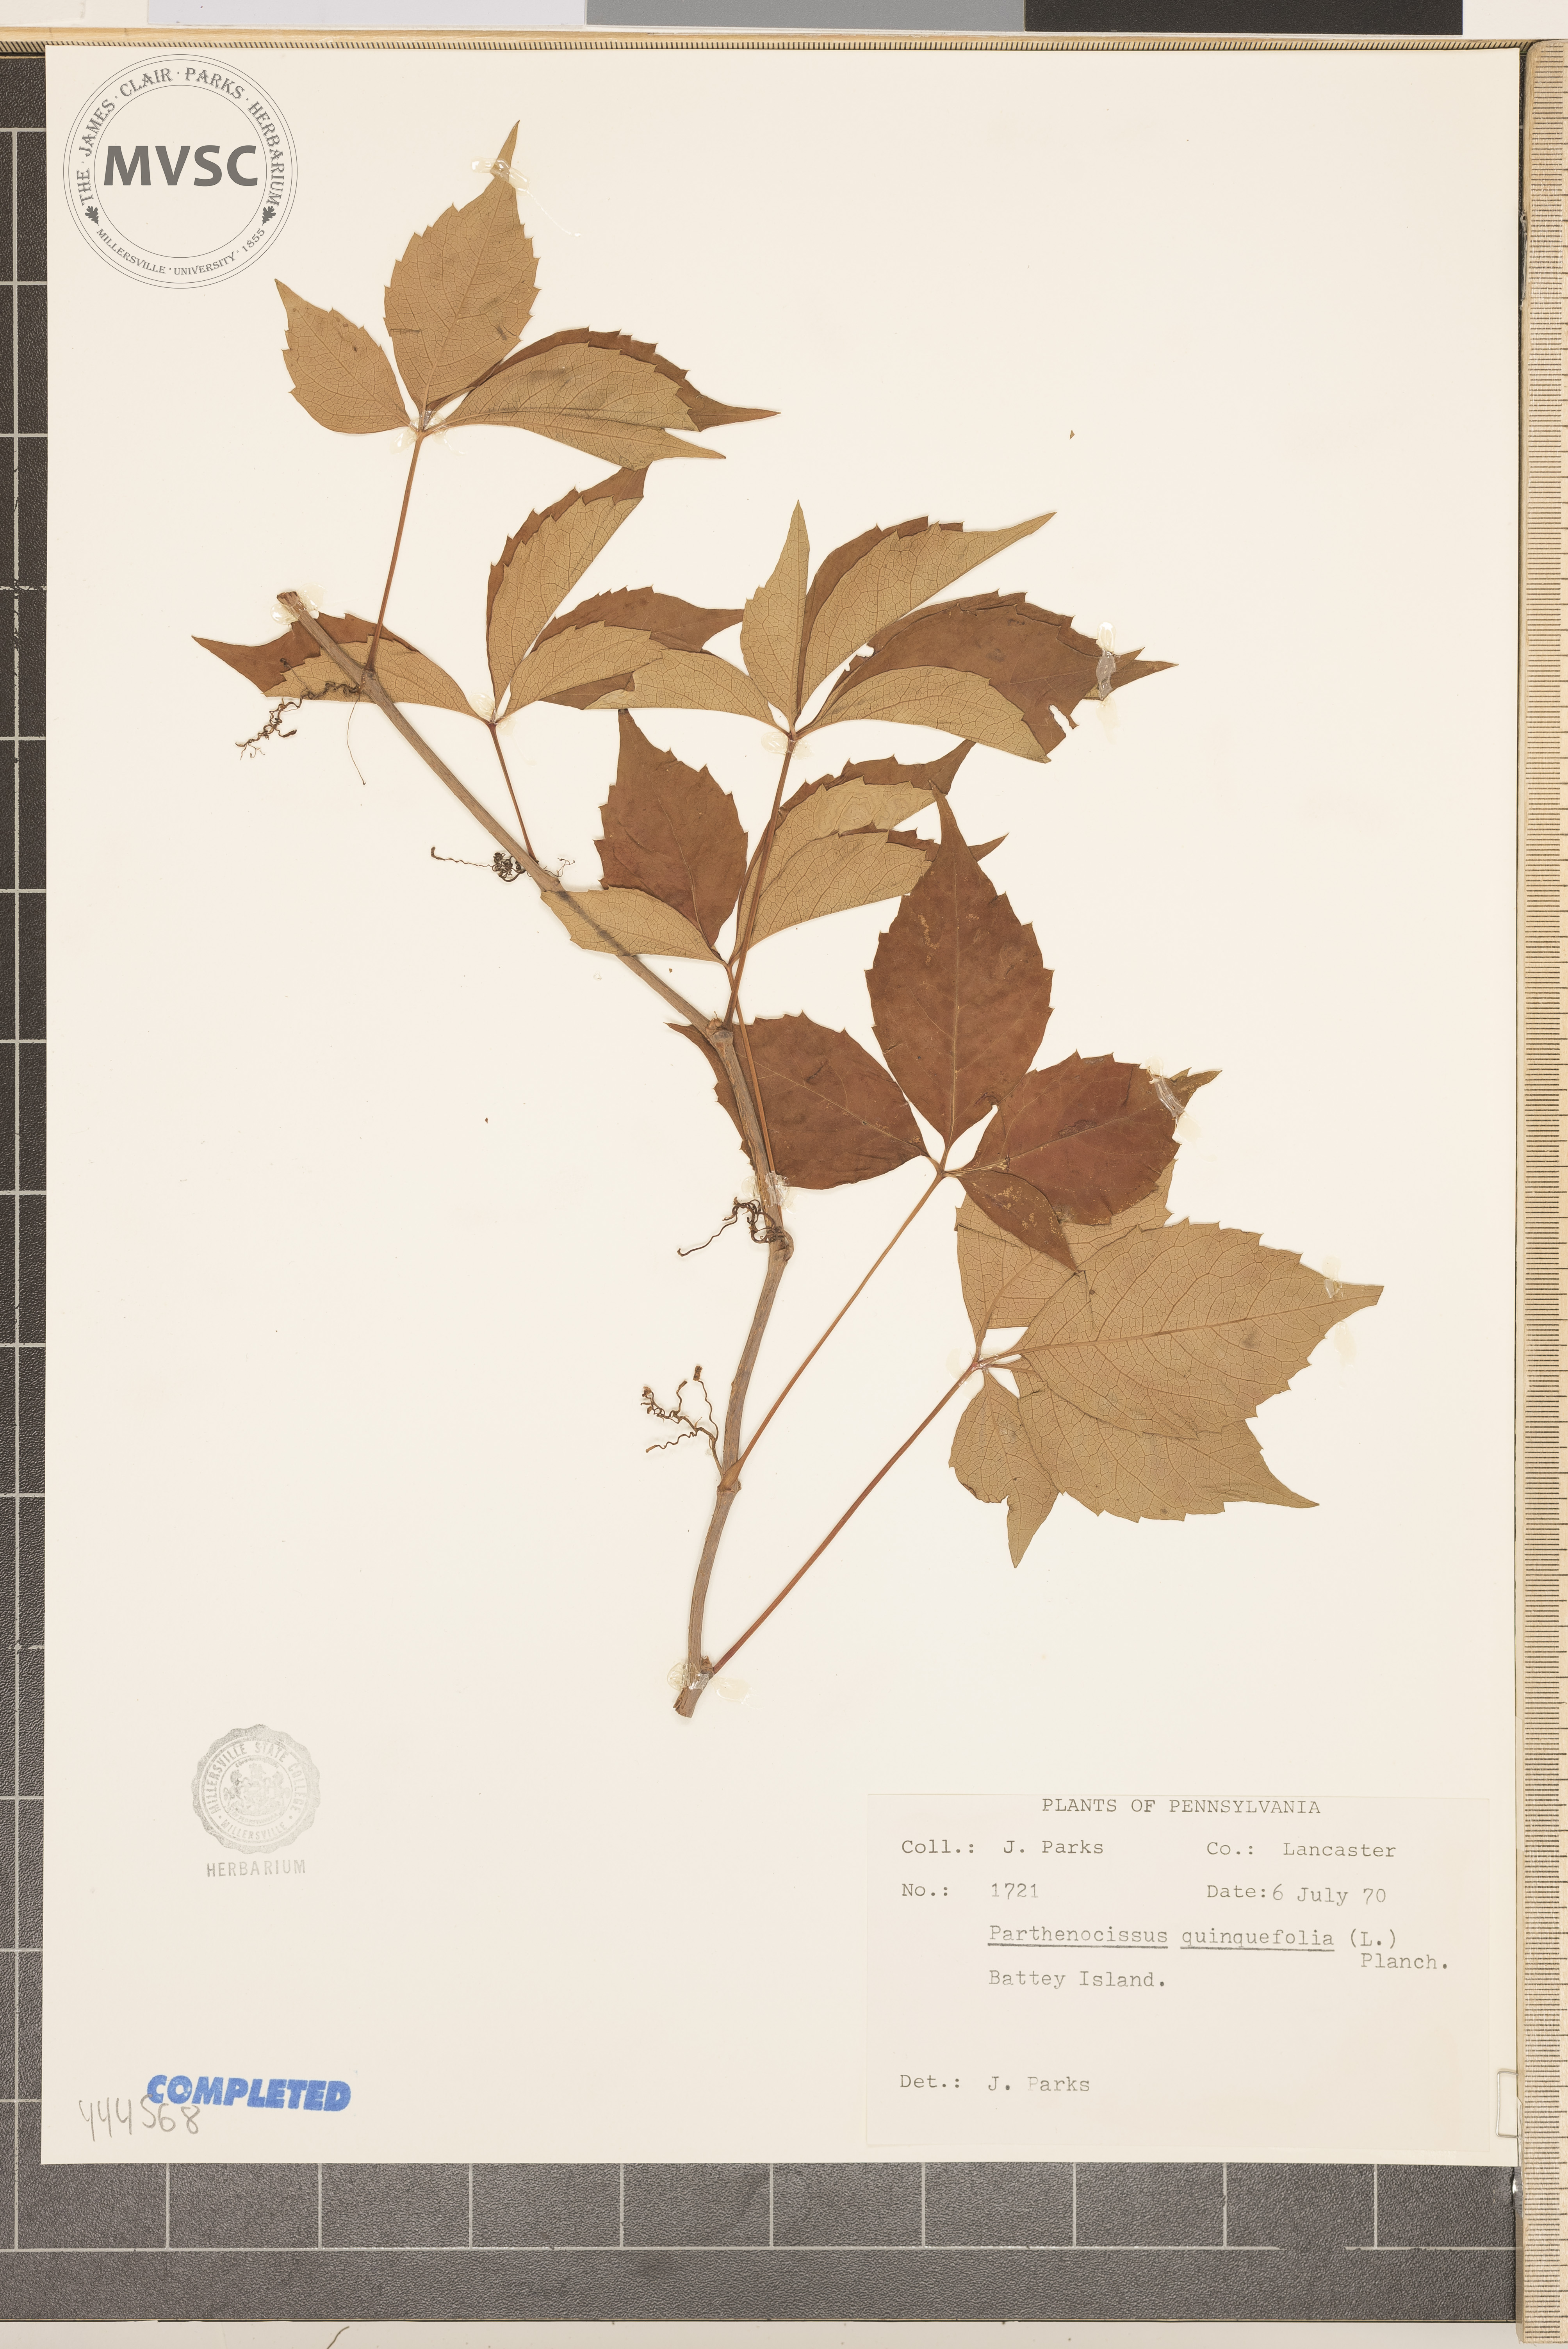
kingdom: Plantae
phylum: Tracheophyta
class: Magnoliopsida
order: Vitales
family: Vitaceae
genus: Parthenocissus
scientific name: Parthenocissus quinquefolia
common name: Virginia-creeper
